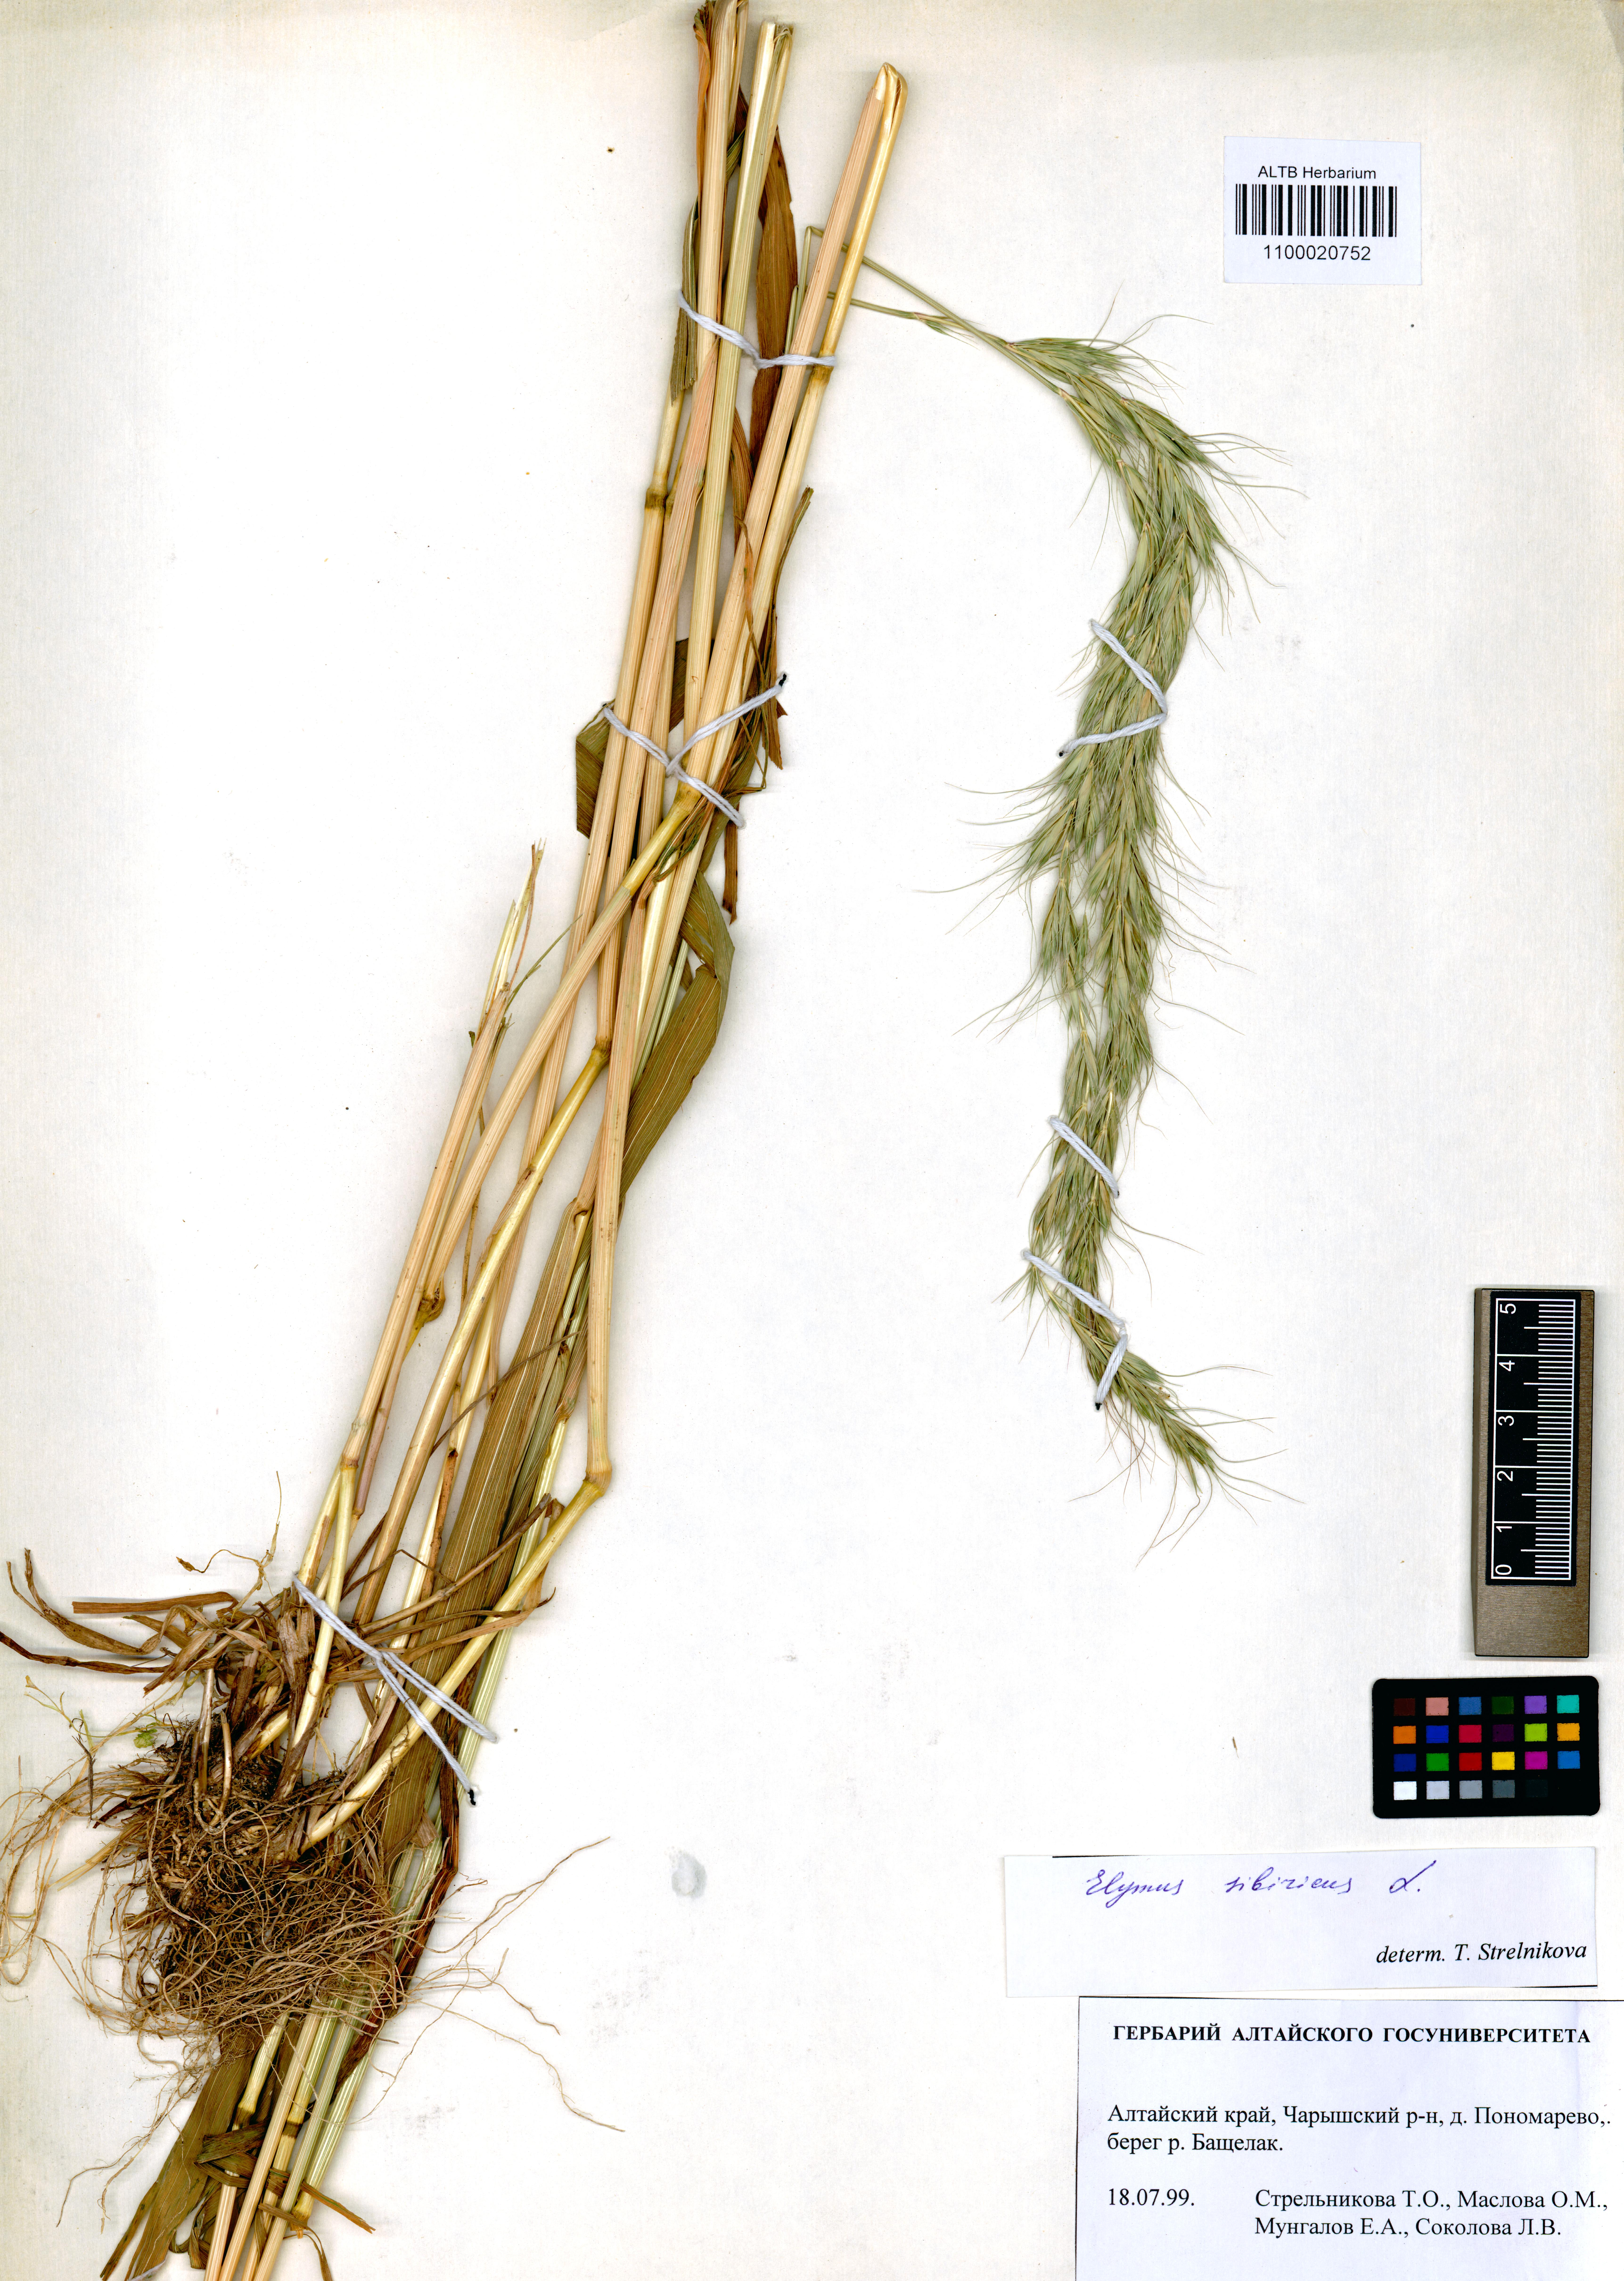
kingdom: Plantae
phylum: Tracheophyta
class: Liliopsida
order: Poales
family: Poaceae
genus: Elymus
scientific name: Elymus sibiricus
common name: Siberian wildrye
